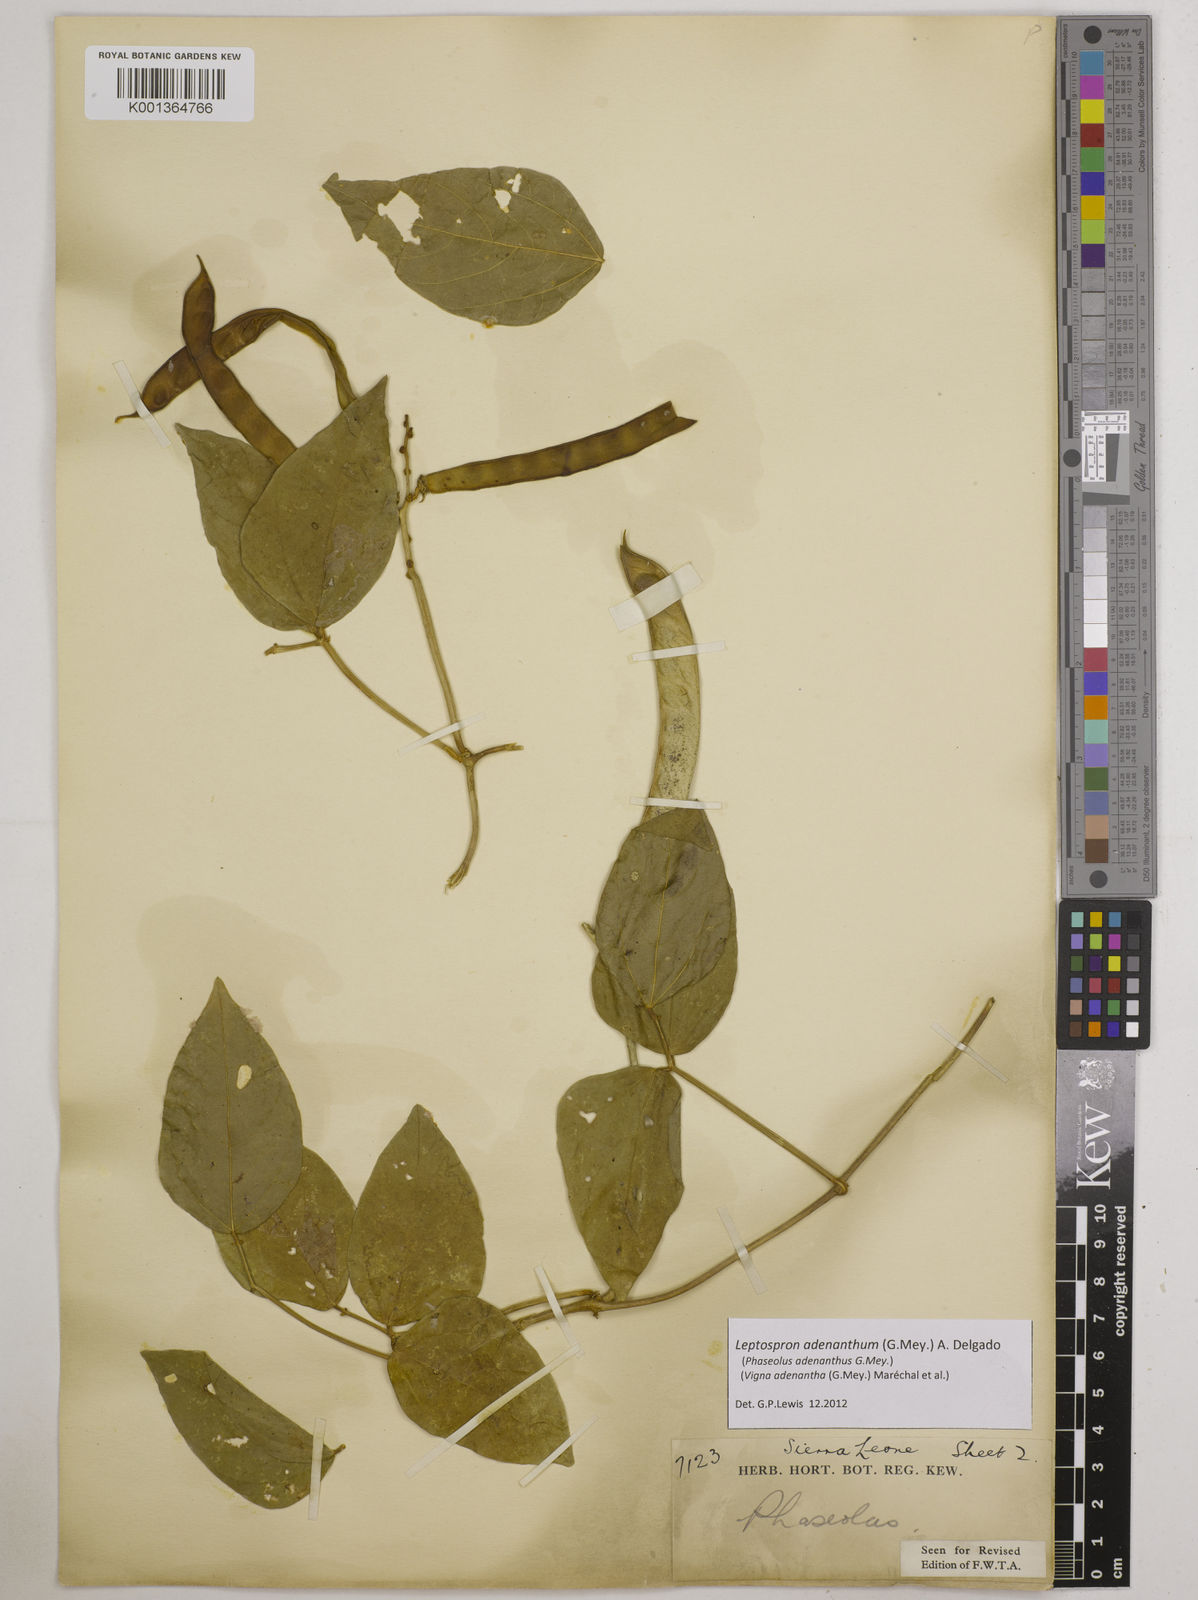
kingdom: Plantae
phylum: Tracheophyta
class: Magnoliopsida
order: Fabales
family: Fabaceae
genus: Leptospron
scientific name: Leptospron adenanthum
